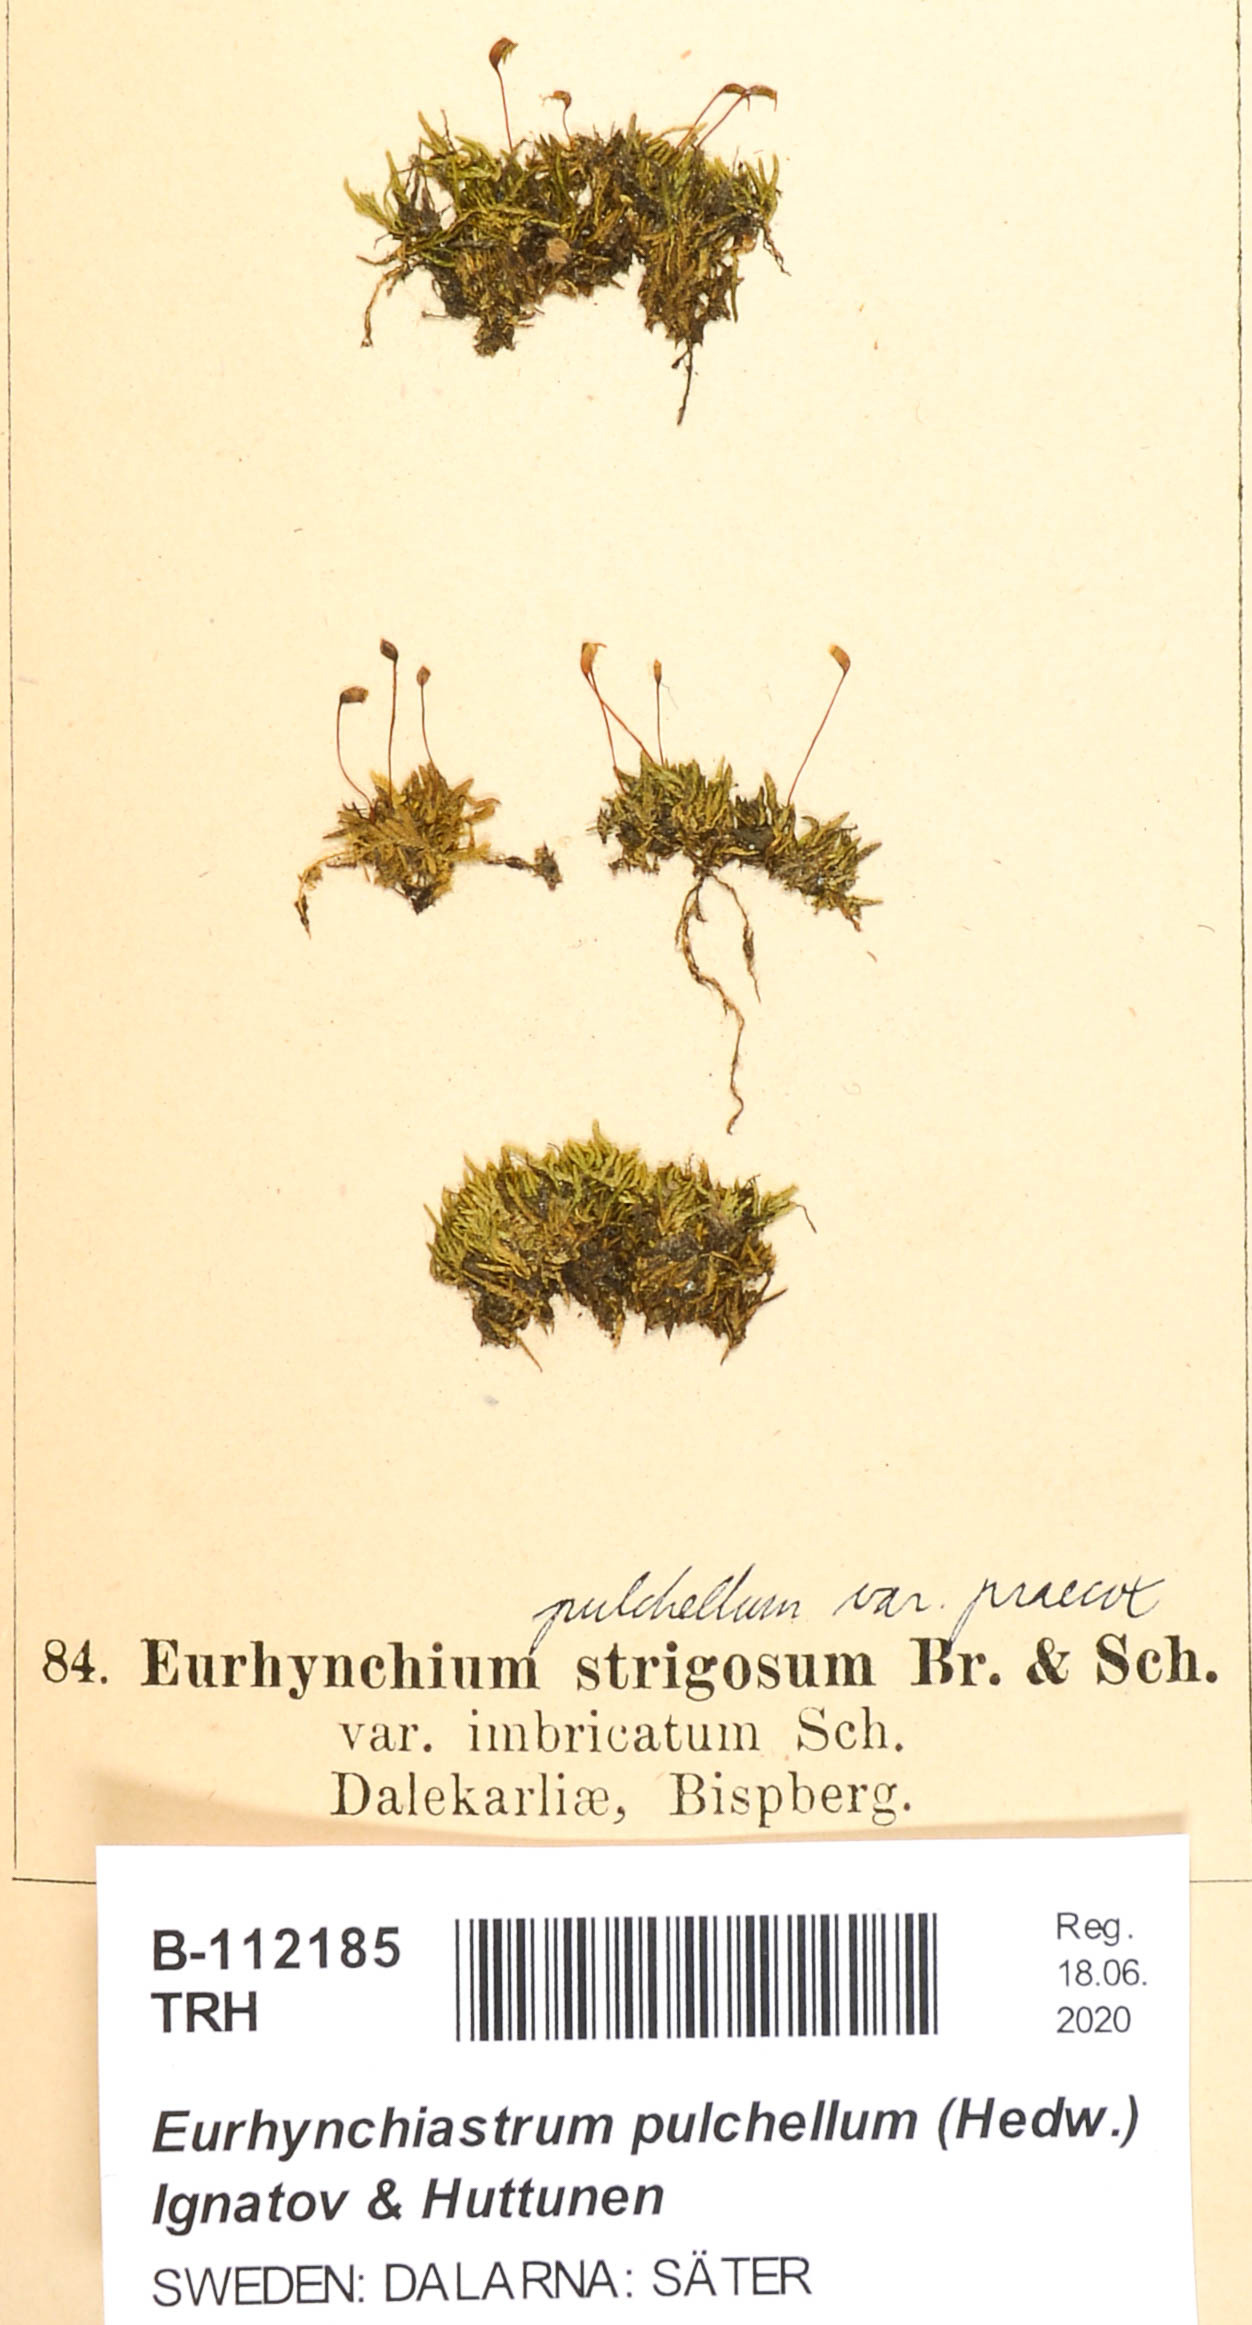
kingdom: Plantae
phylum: Bryophyta
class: Bryopsida
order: Hypnales
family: Brachytheciaceae
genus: Eurhynchiastrum
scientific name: Eurhynchiastrum pulchellum
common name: Elegant beaked moss
